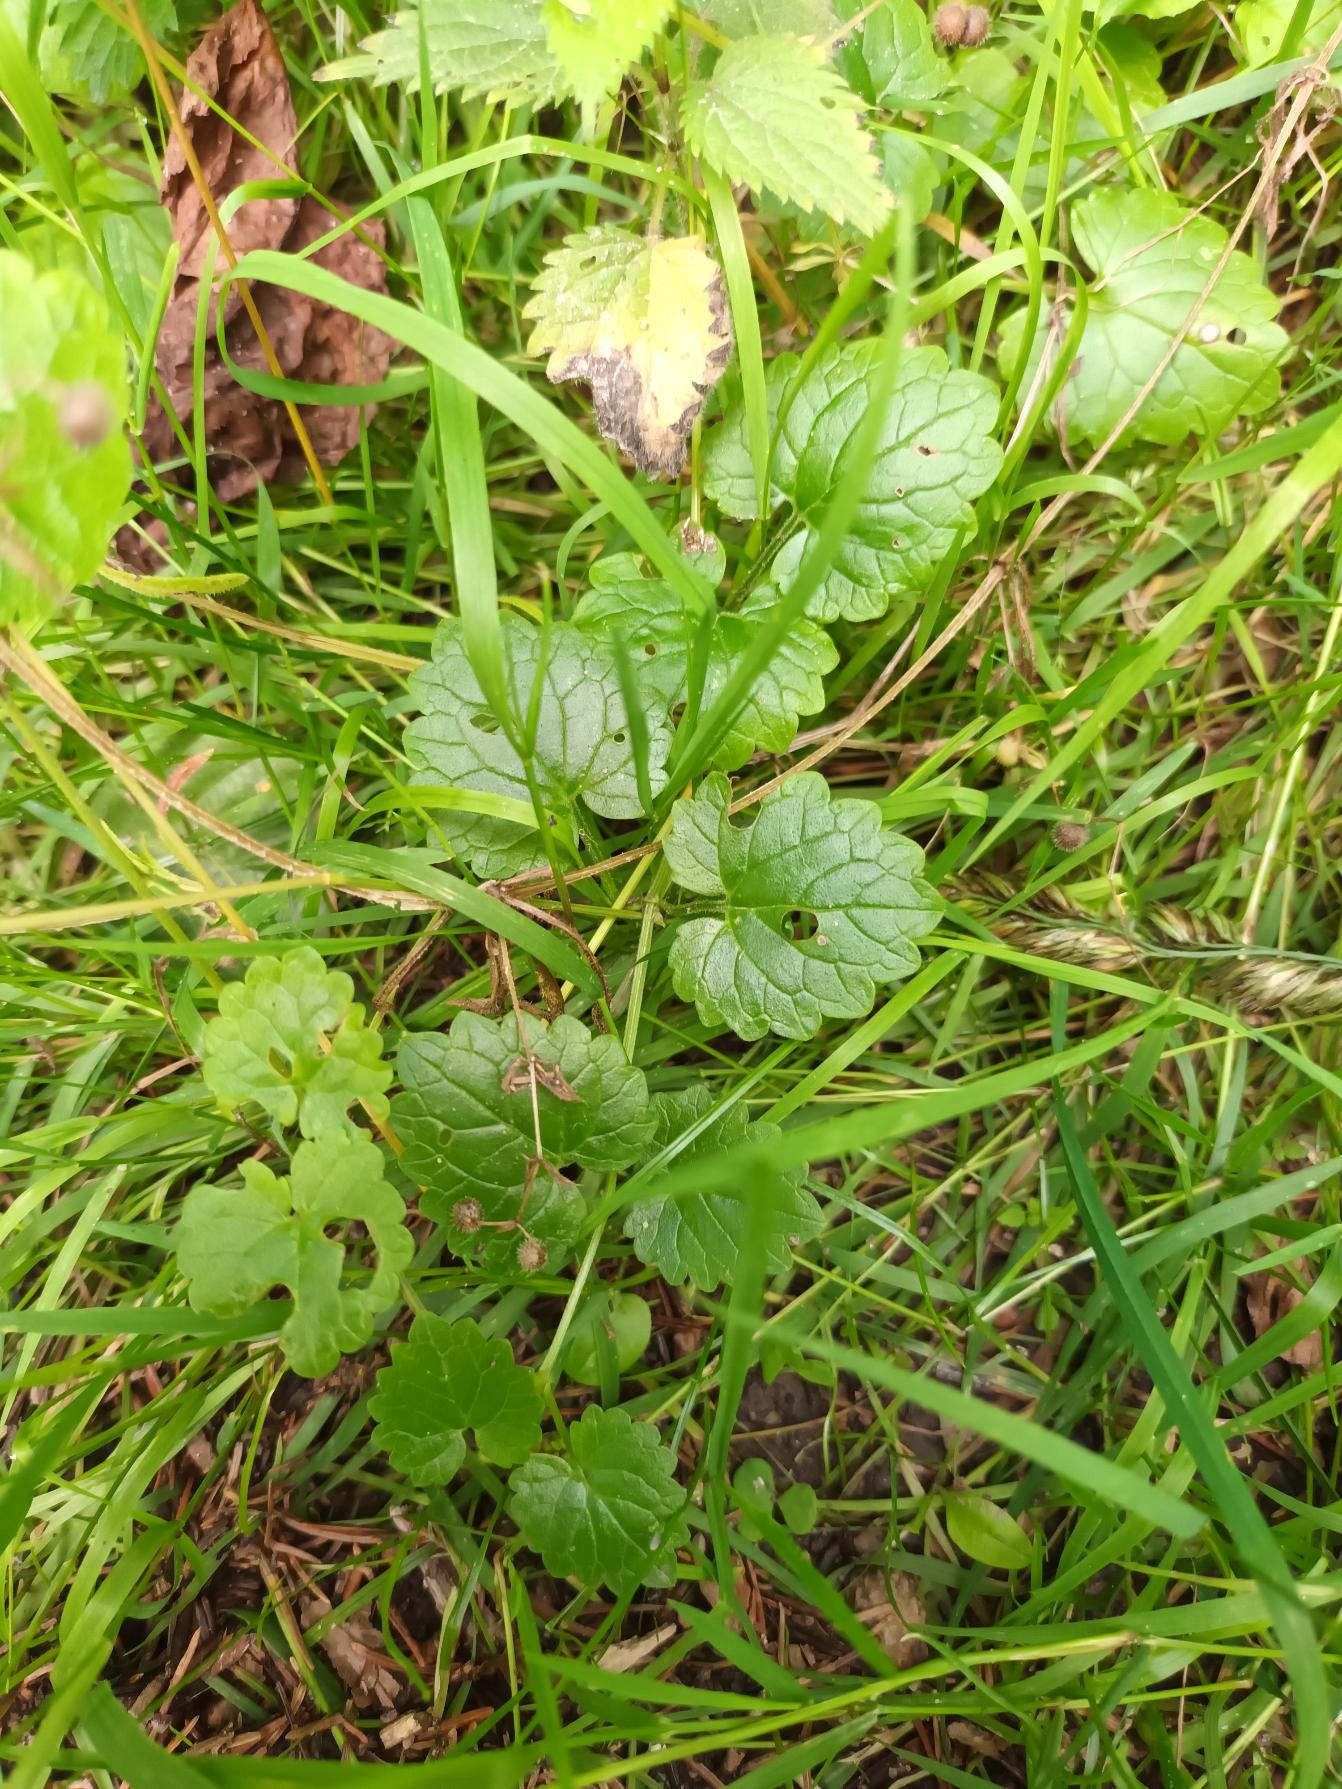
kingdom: Plantae
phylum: Tracheophyta
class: Magnoliopsida
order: Lamiales
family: Lamiaceae
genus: Glechoma
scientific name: Glechoma hederacea
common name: Korsknap
